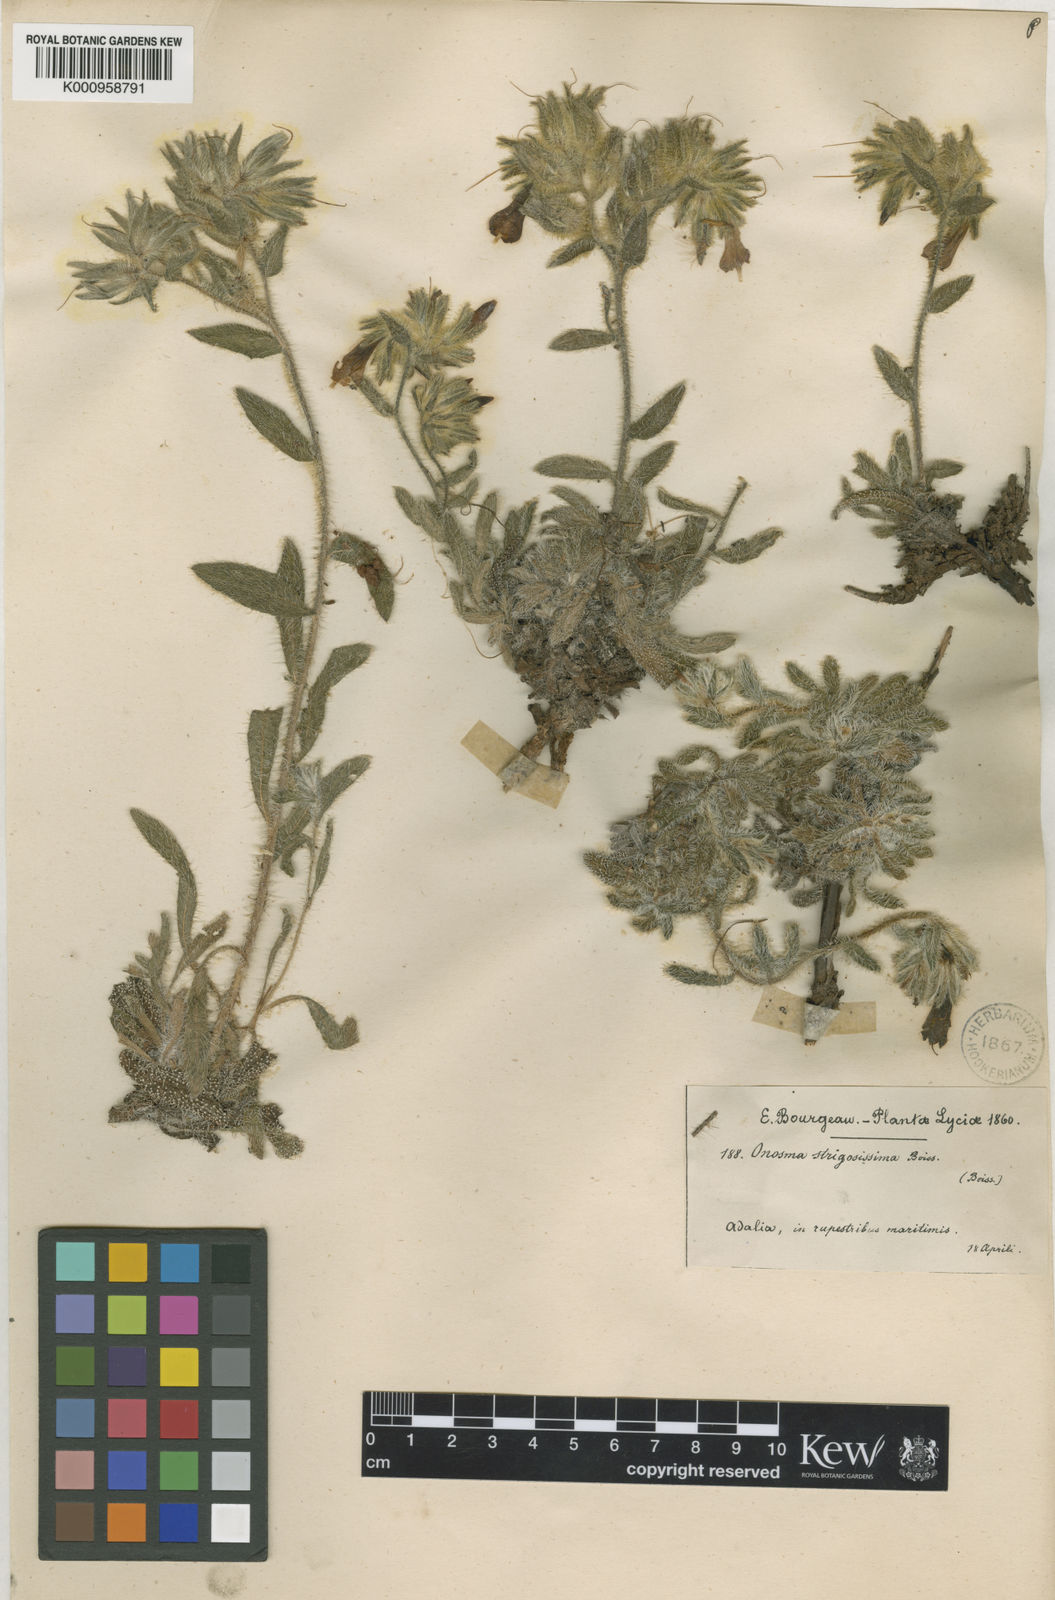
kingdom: Plantae
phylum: Tracheophyta
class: Magnoliopsida
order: Boraginales
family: Boraginaceae
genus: Onosma
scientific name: Onosma strigosissima
